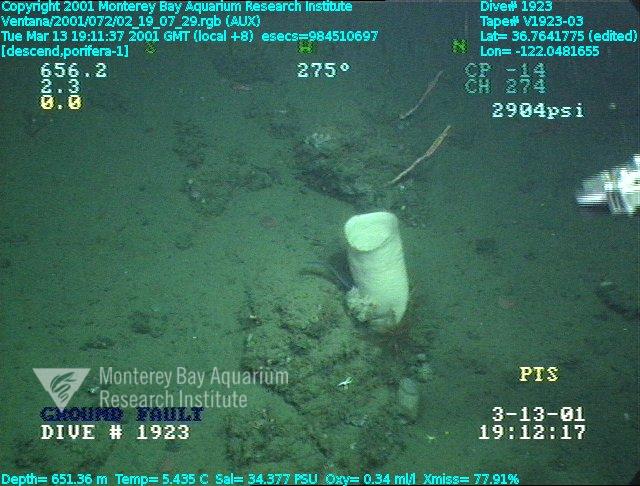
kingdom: Animalia
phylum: Porifera
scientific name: Porifera
